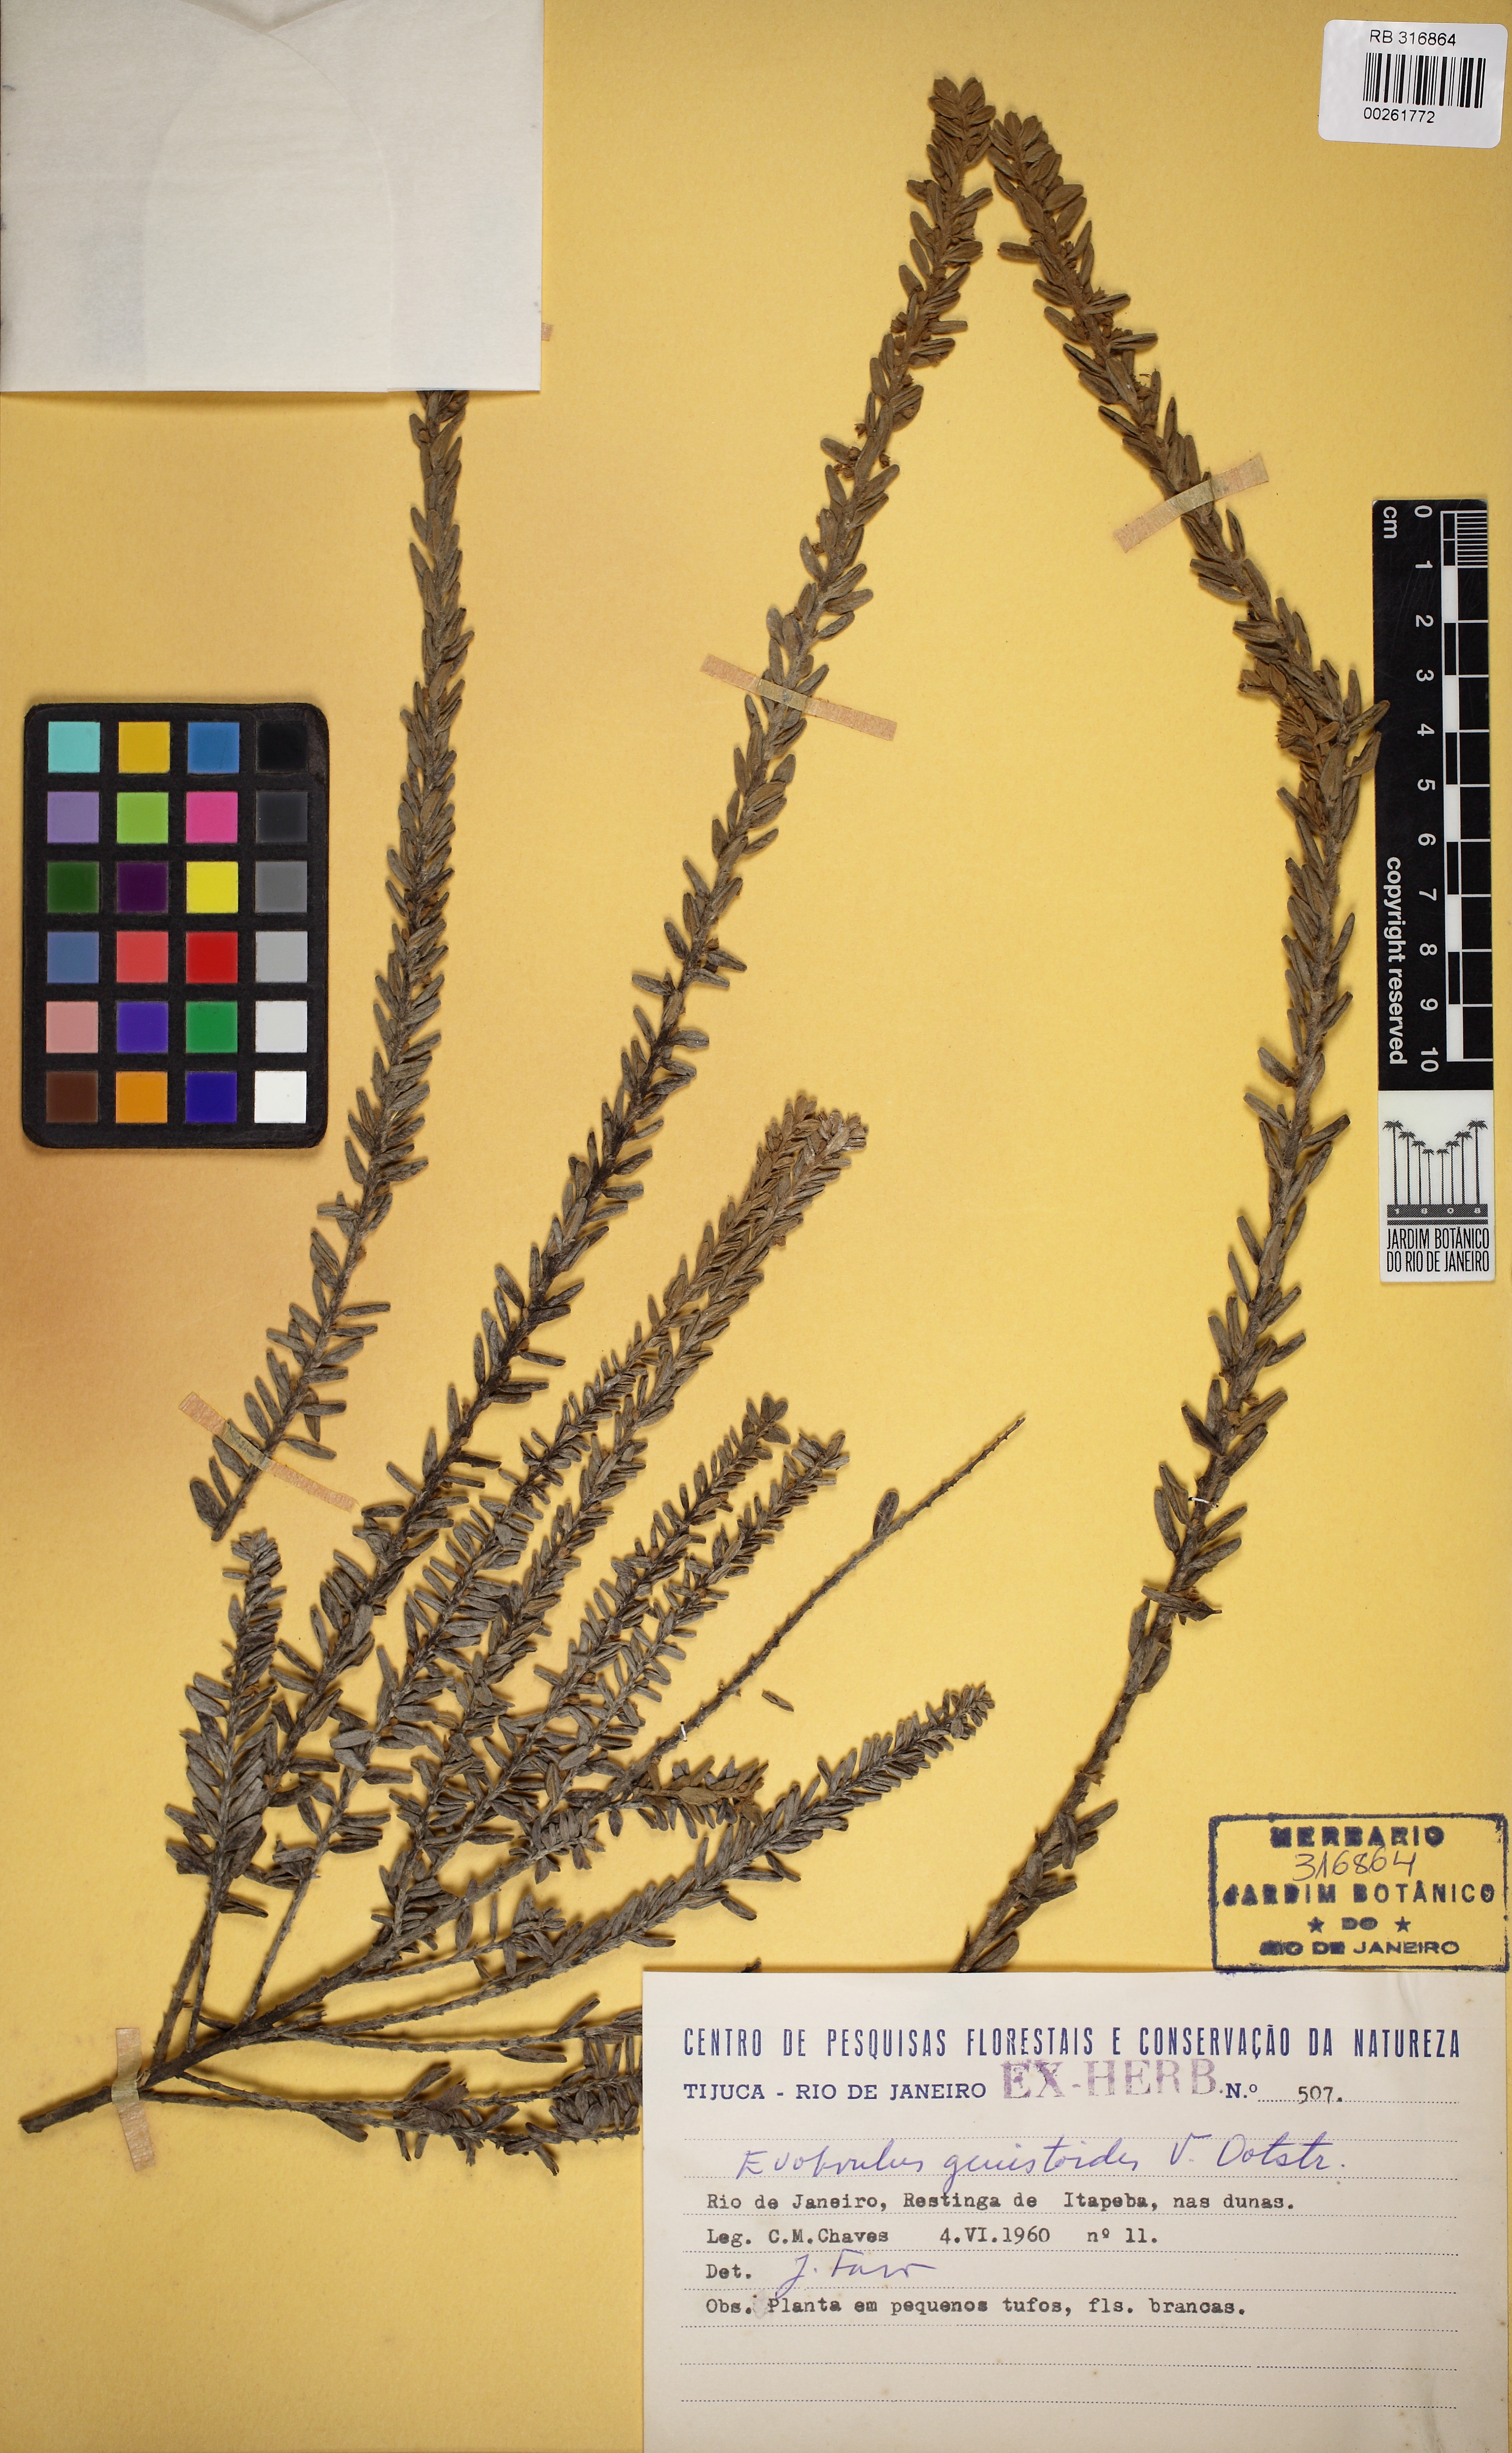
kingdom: Plantae
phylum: Tracheophyta
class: Magnoliopsida
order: Solanales
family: Convolvulaceae
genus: Evolvulus
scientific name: Evolvulus genistoides
